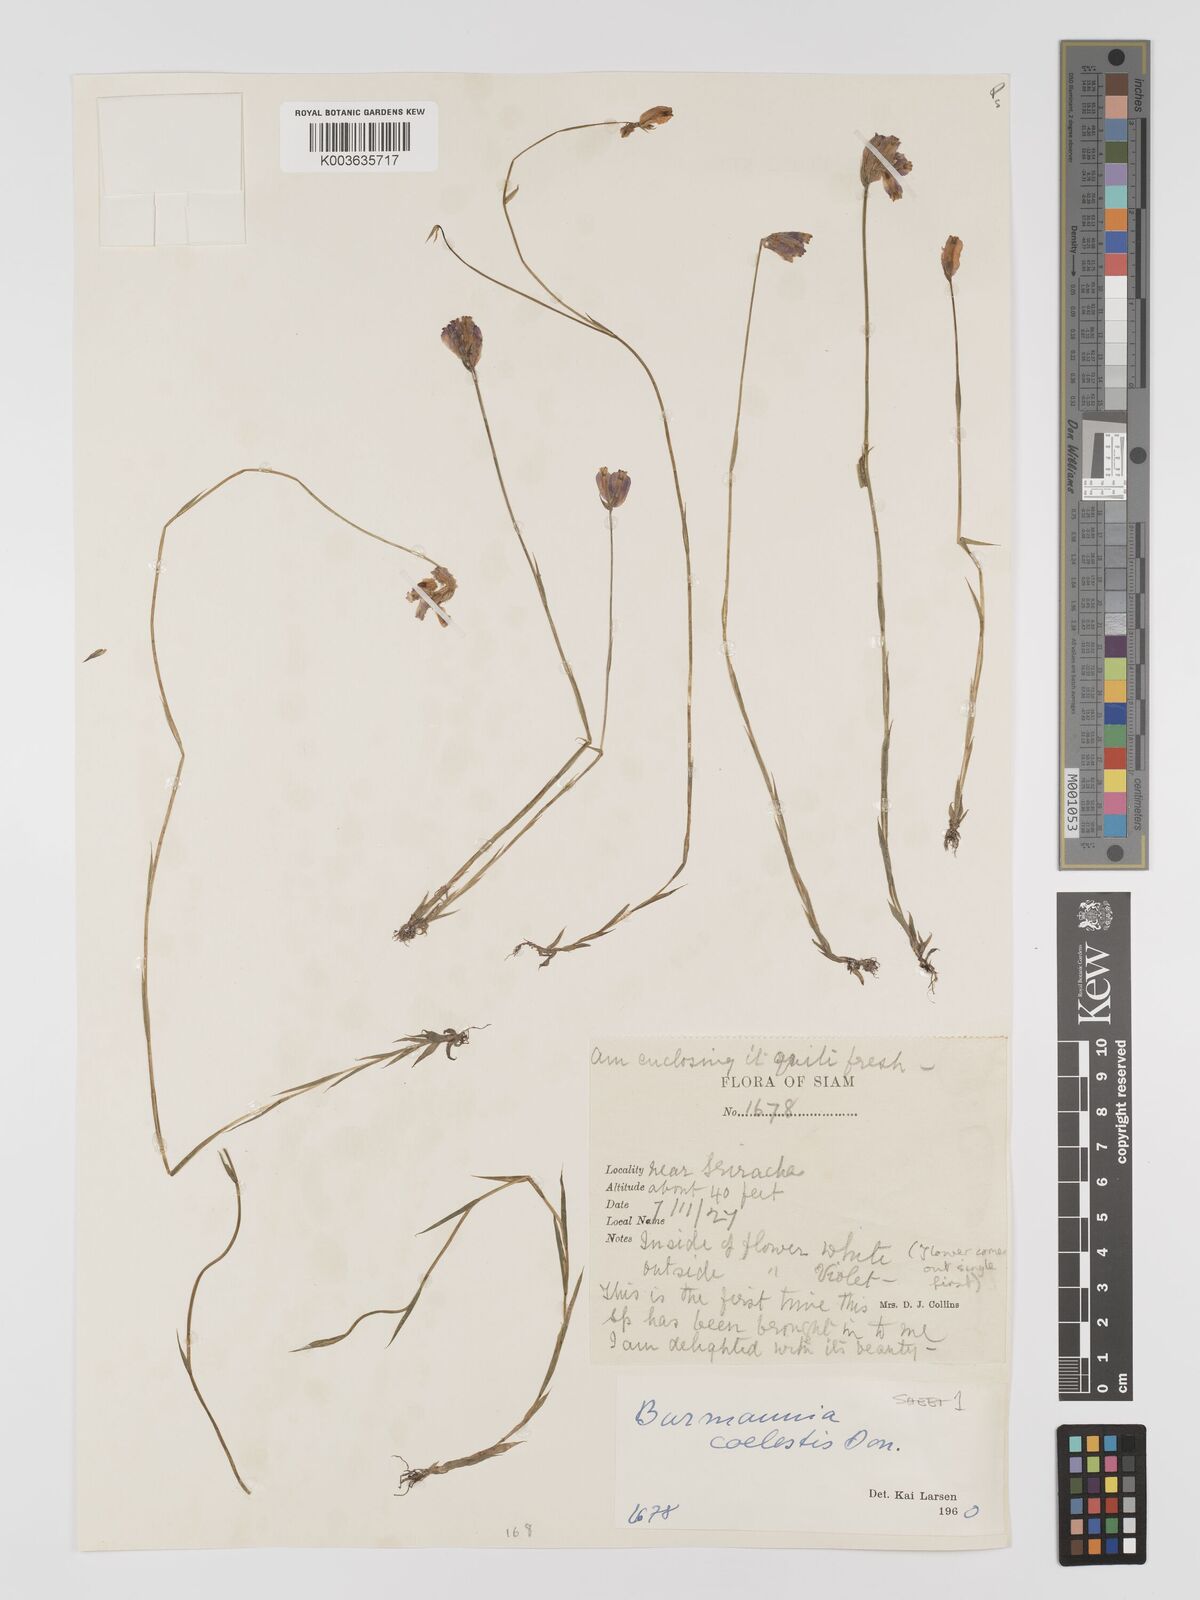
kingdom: Plantae
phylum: Tracheophyta
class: Liliopsida
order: Dioscoreales
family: Burmanniaceae
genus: Burmannia
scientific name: Burmannia coelestis
